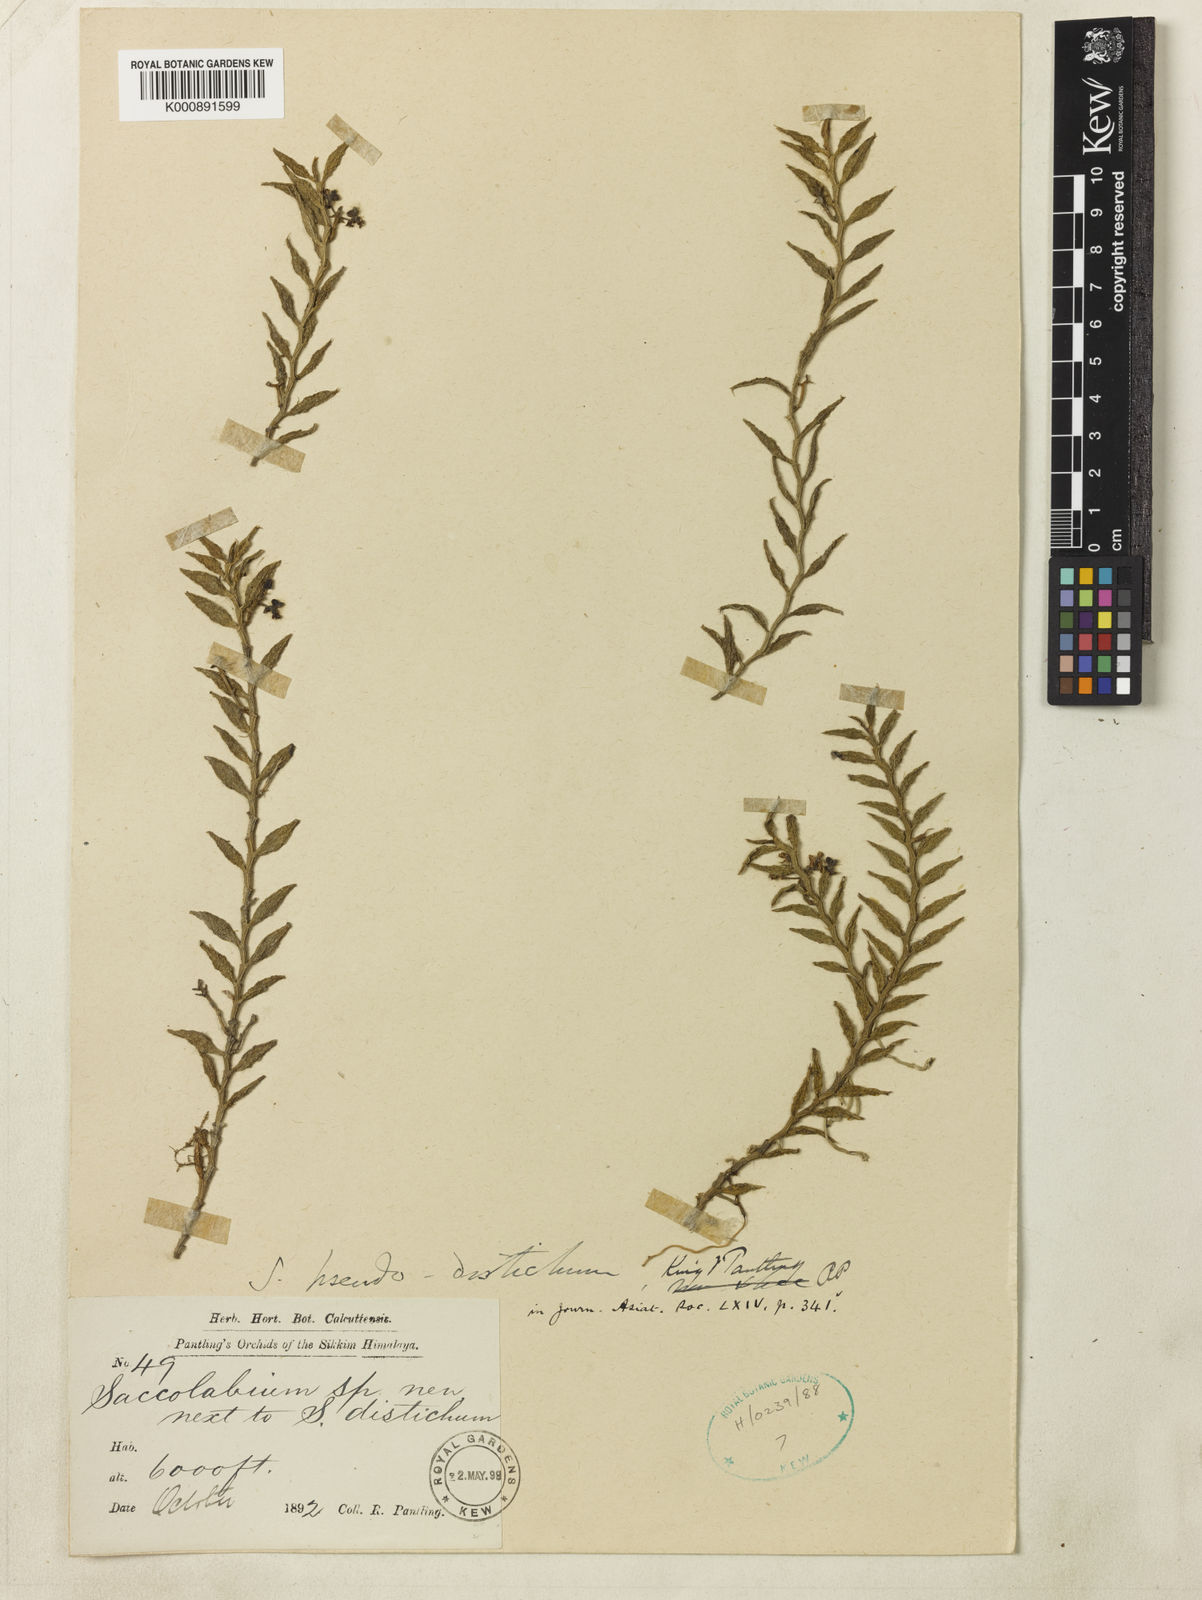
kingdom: Plantae
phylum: Tracheophyta
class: Liliopsida
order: Asparagales
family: Orchidaceae
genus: Gastrochilus
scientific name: Gastrochilus pseudodistichus
